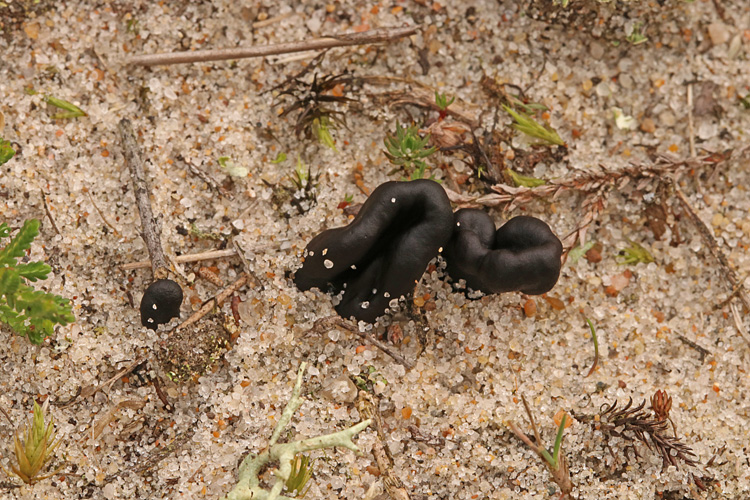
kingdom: Fungi
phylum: Ascomycota
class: Geoglossomycetes
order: Geoglossales
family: Geoglossaceae
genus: Sabuloglossum
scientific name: Sabuloglossum arenarium
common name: klit-jordtunge
